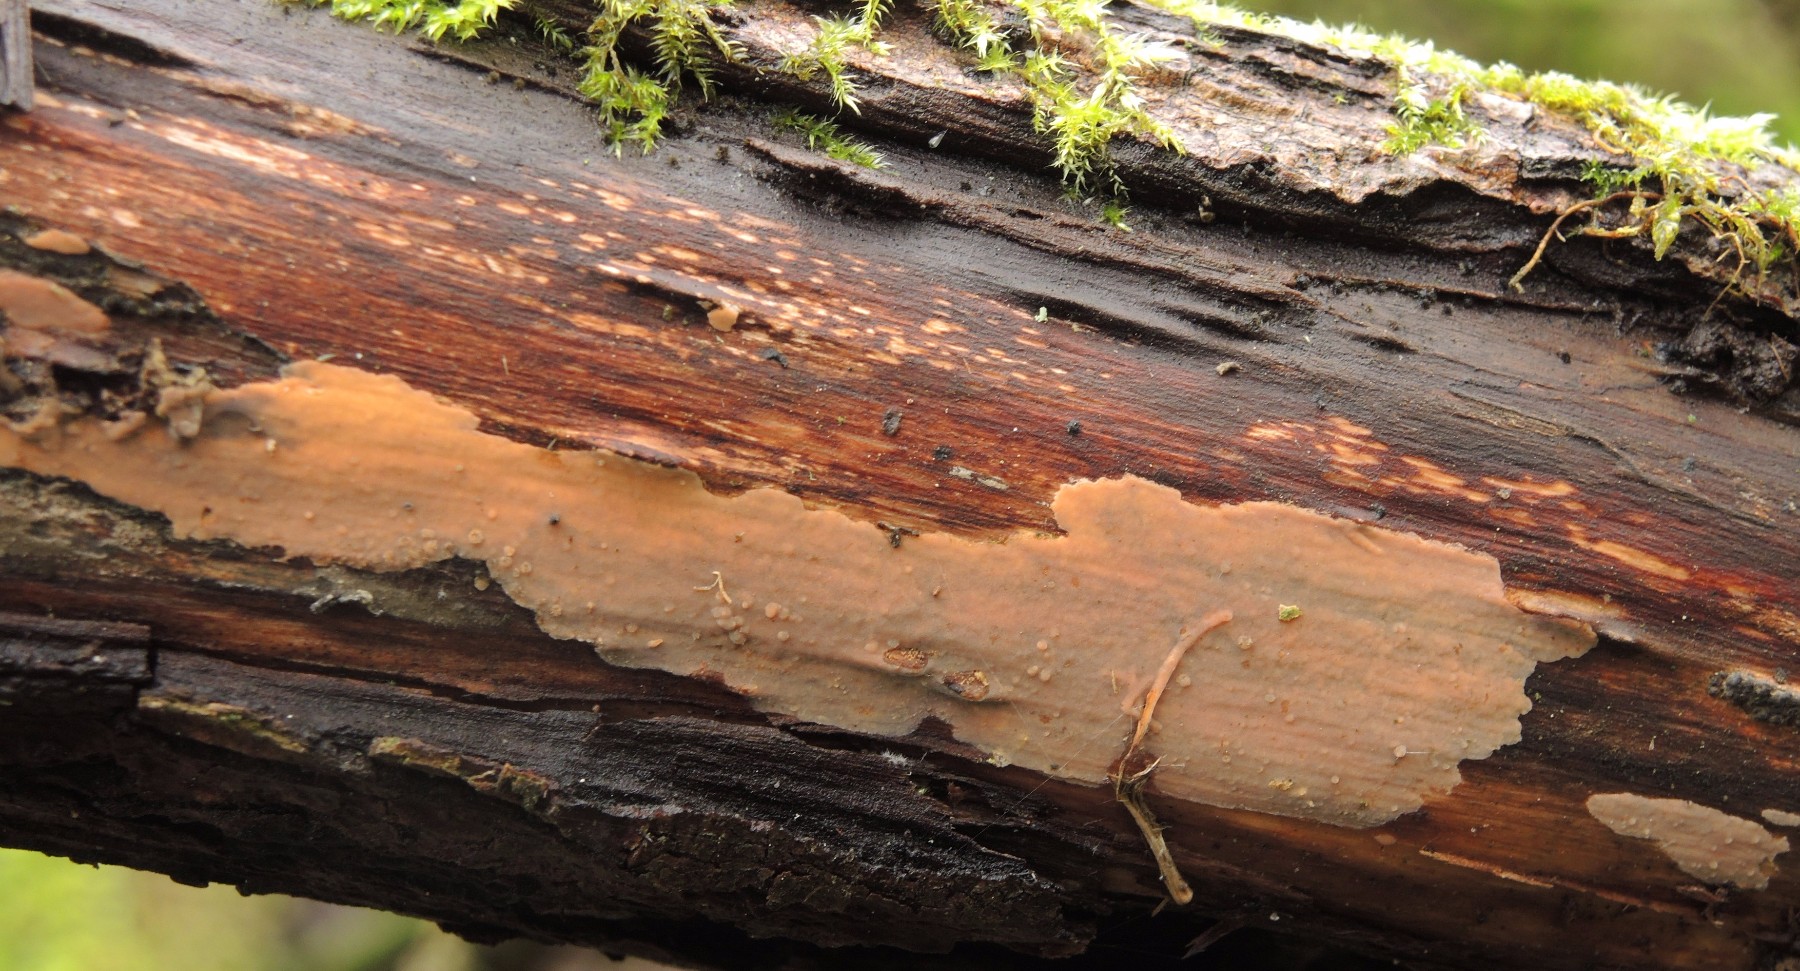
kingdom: Fungi
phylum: Basidiomycota
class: Agaricomycetes
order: Russulales
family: Peniophoraceae
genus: Peniophora
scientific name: Peniophora incarnata
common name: laksefarvet voksskind
